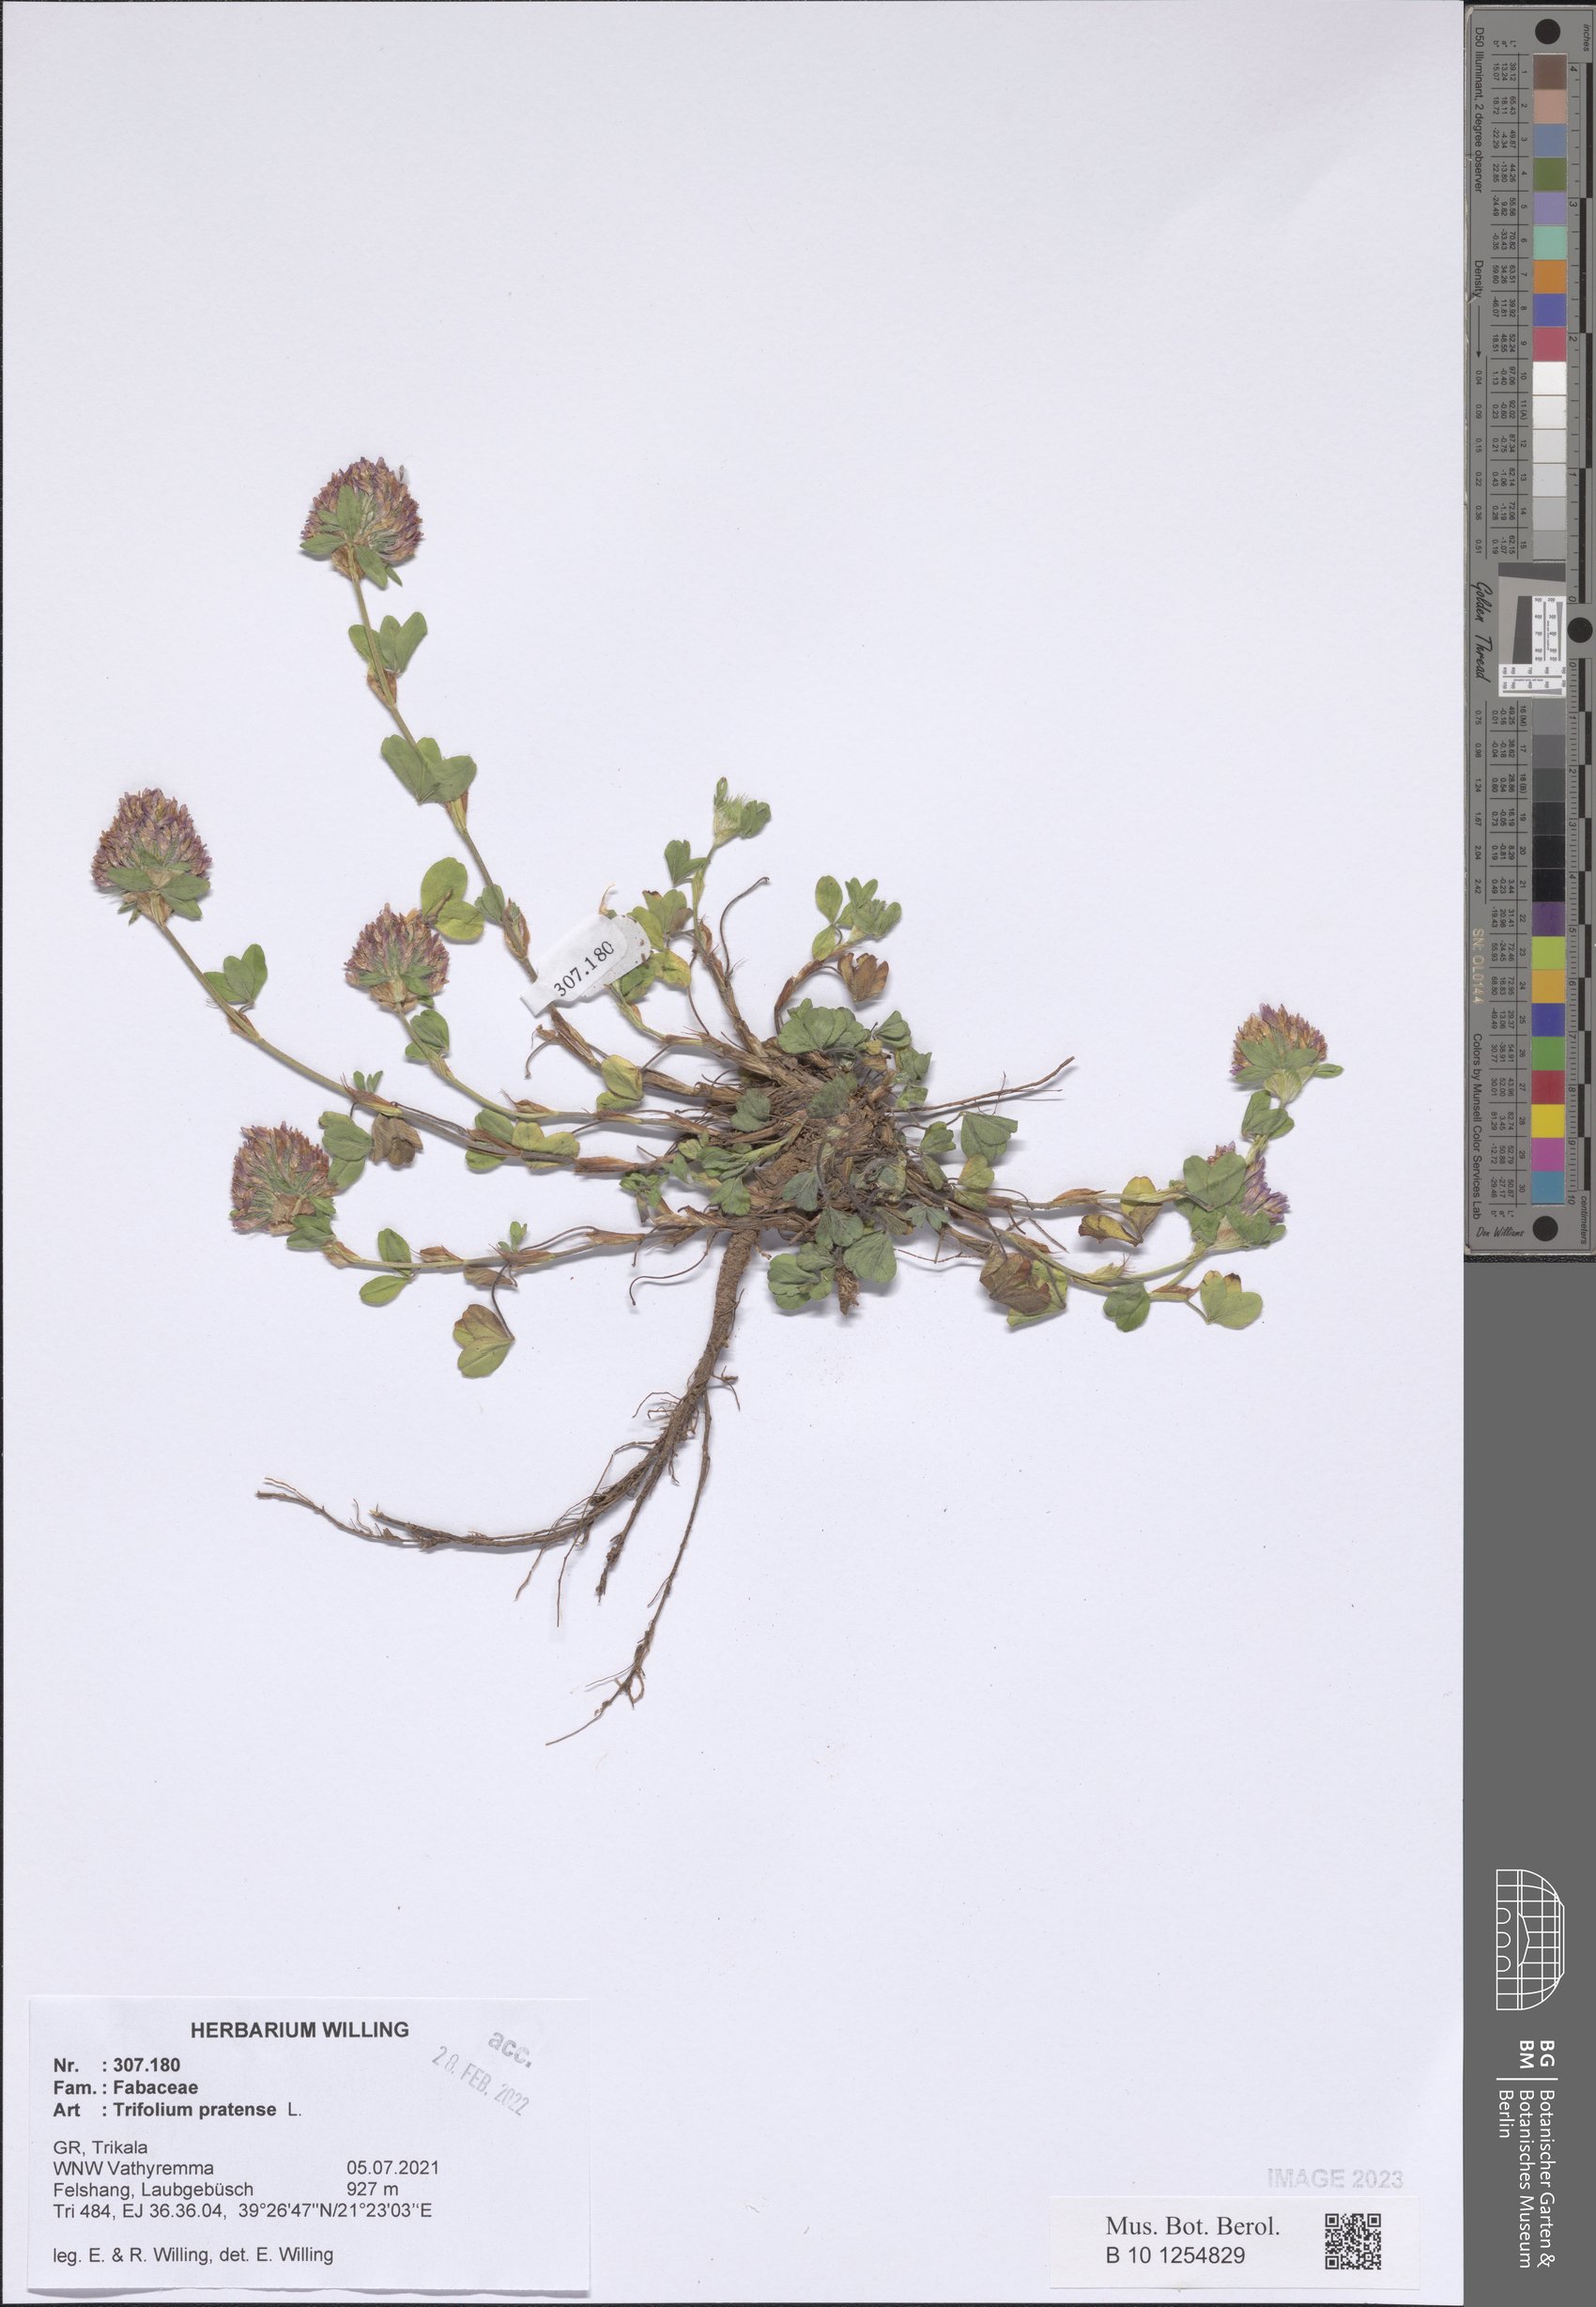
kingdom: Plantae
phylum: Tracheophyta
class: Magnoliopsida
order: Fabales
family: Fabaceae
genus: Trifolium
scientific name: Trifolium pratense
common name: Red clover
